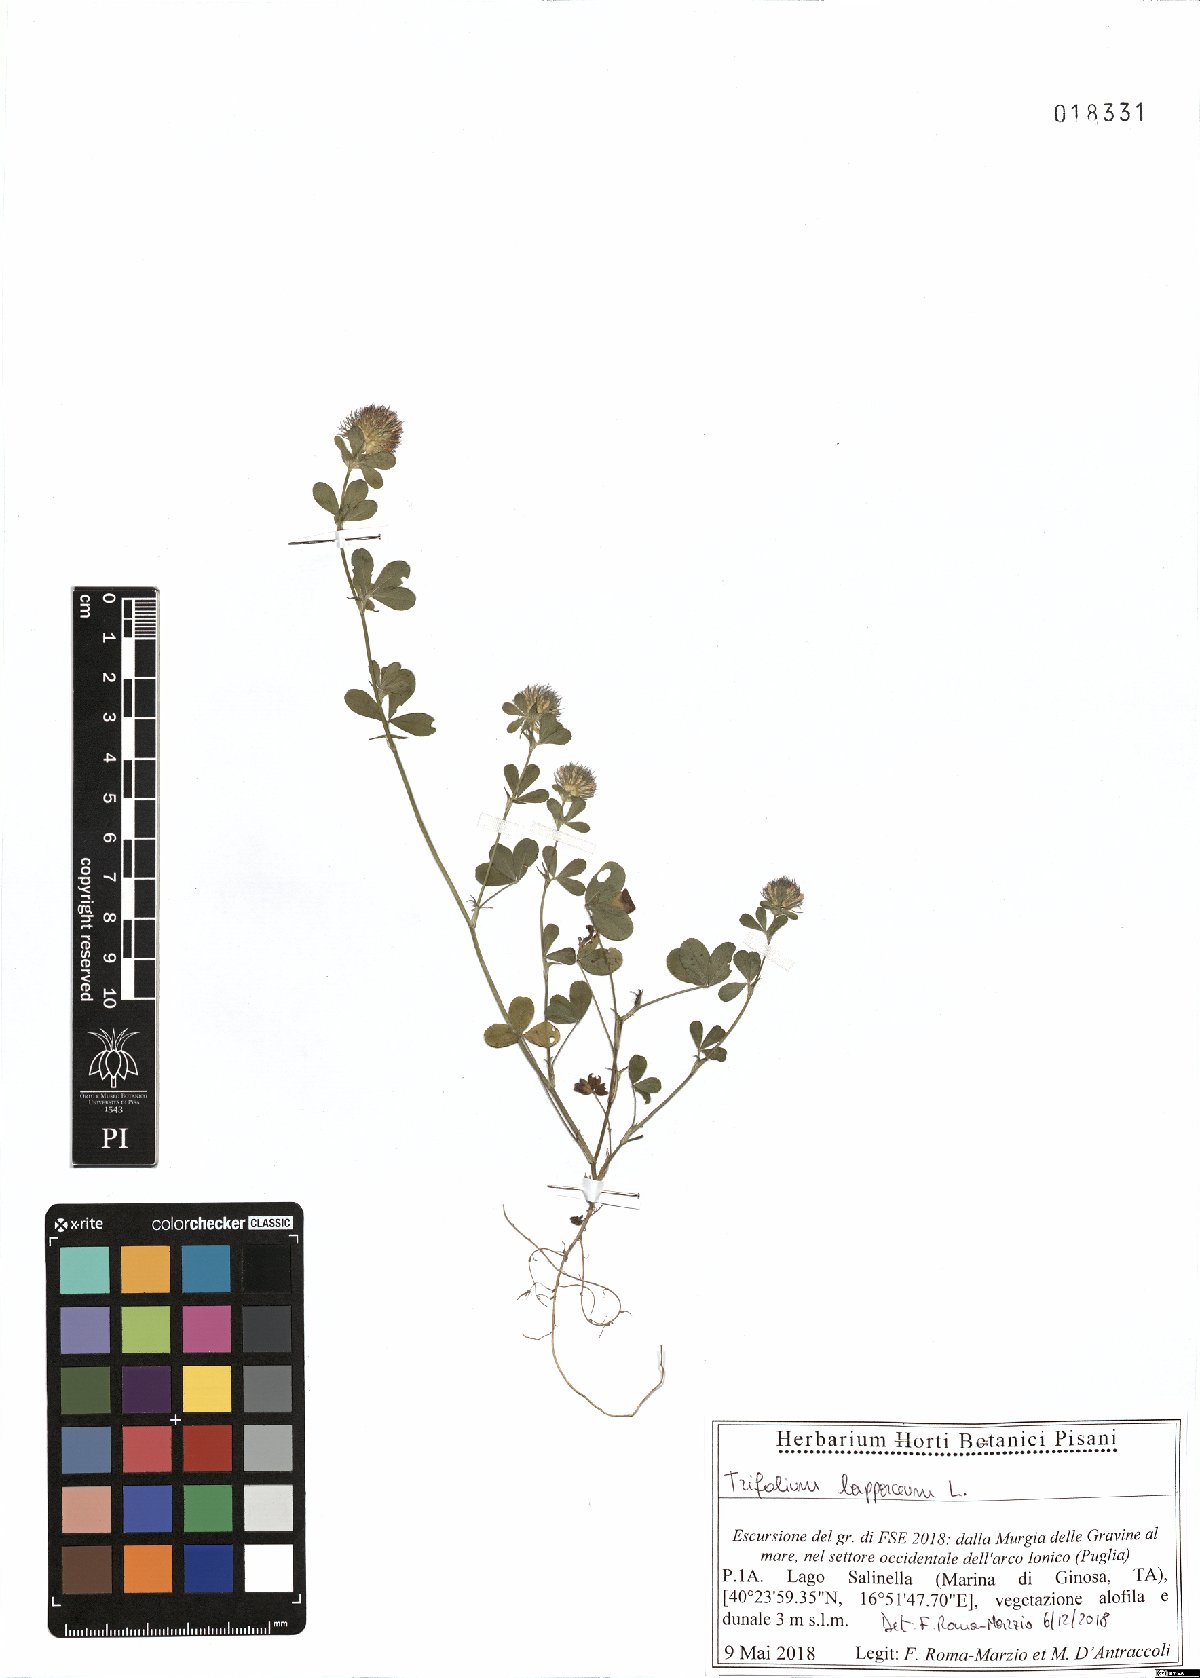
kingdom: Plantae
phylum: Tracheophyta
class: Magnoliopsida
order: Fabales
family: Fabaceae
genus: Trifolium
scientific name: Trifolium lappaceum
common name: Bur clover
